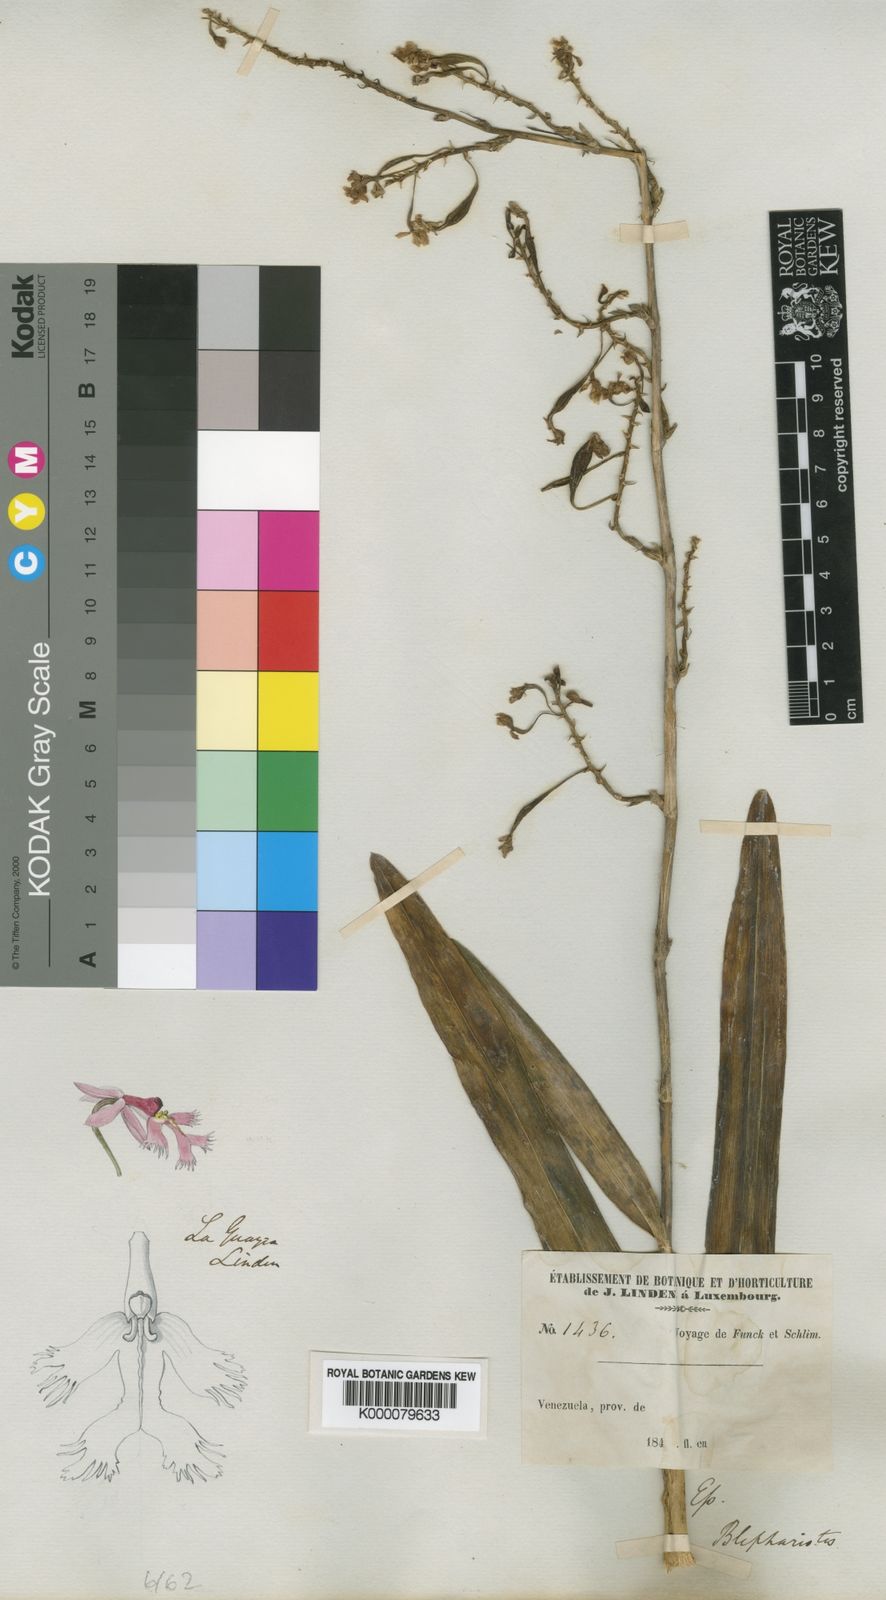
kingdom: Plantae
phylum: Tracheophyta
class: Liliopsida
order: Asparagales
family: Orchidaceae
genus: Epidendrum
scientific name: Epidendrum blepharistes
